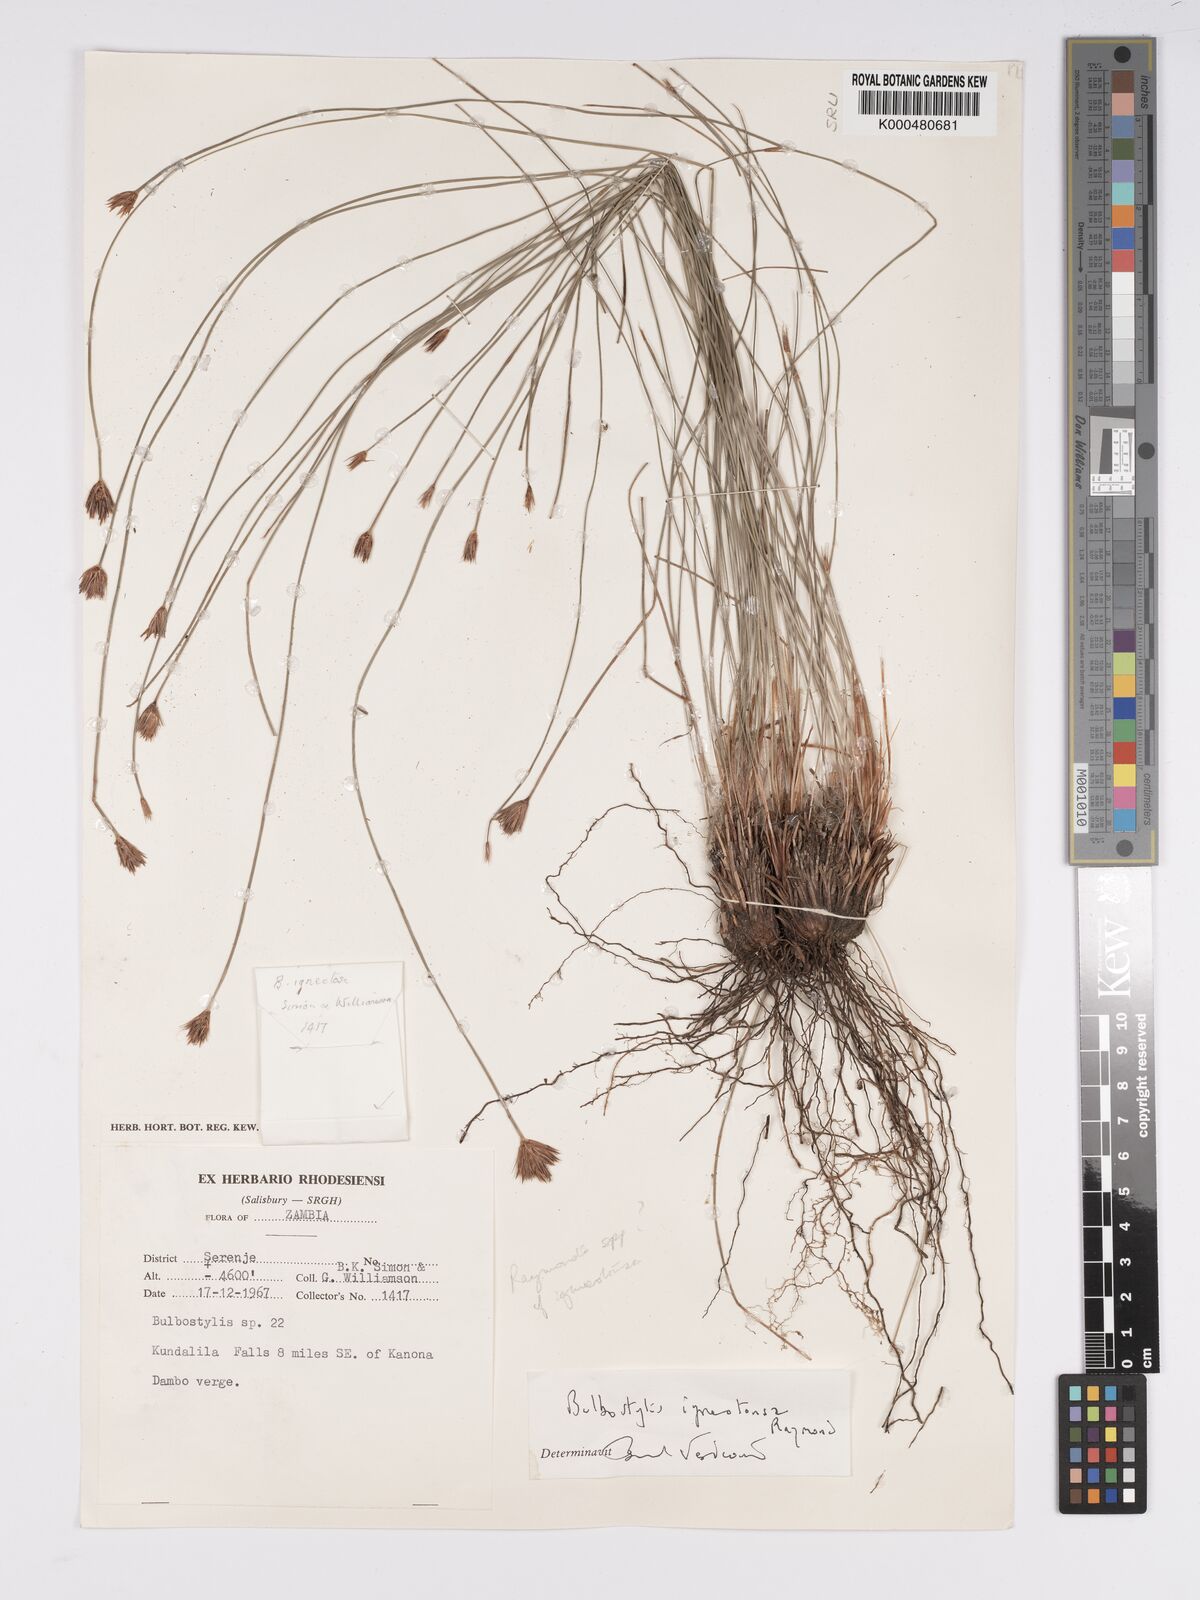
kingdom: Plantae
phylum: Tracheophyta
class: Liliopsida
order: Poales
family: Cyperaceae
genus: Bulbostylis
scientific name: Bulbostylis igneotonsa
